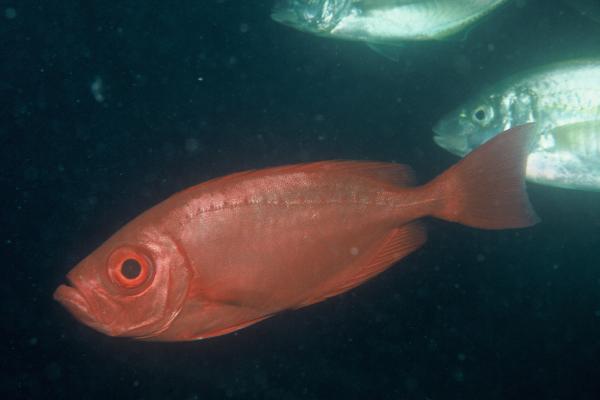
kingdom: Animalia
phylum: Chordata
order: Perciformes
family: Priacanthidae
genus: Priacanthus
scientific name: Priacanthus meeki
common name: Hawaiian bigeye
